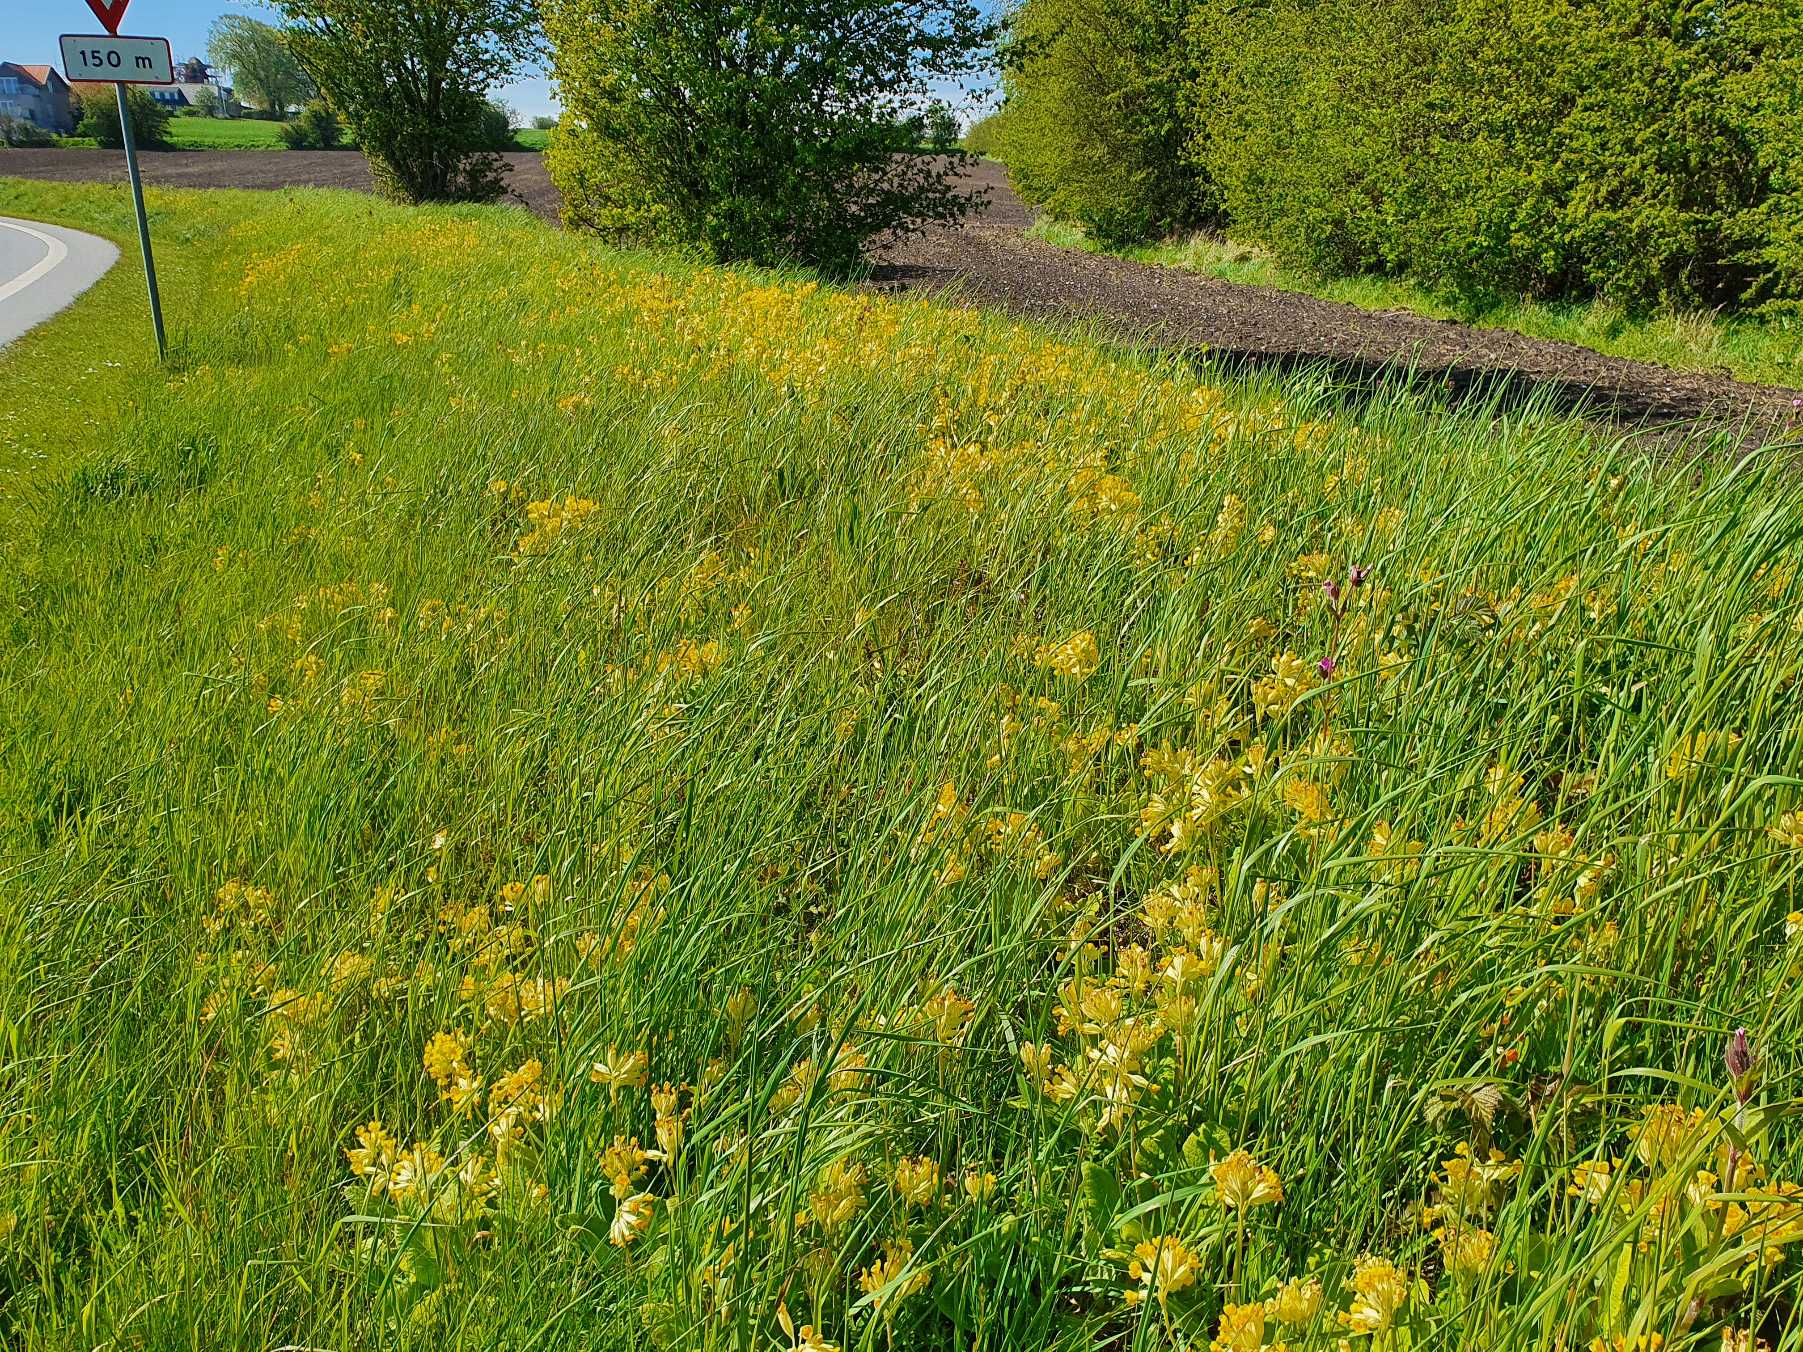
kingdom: Plantae
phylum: Tracheophyta
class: Magnoliopsida
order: Ericales
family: Primulaceae
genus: Primula
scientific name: Primula veris
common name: Hulkravet kodriver
